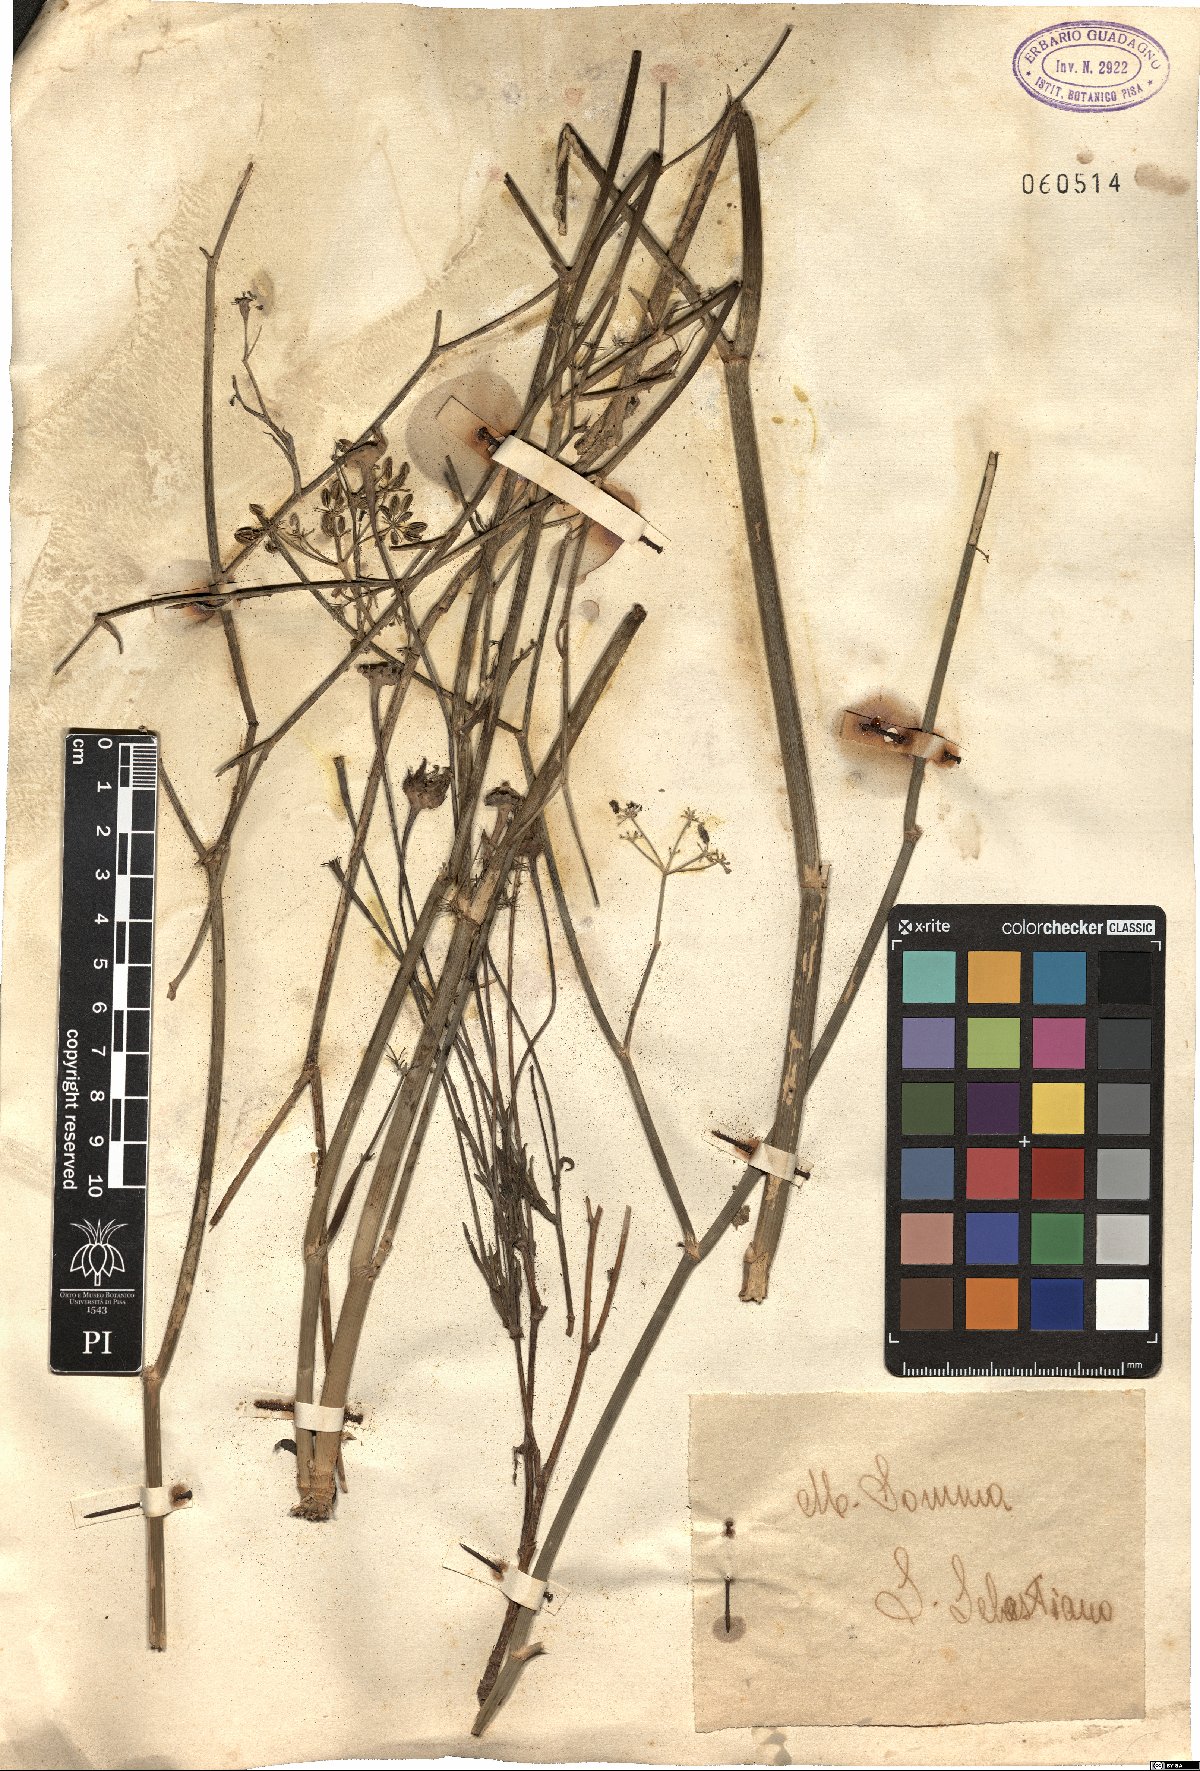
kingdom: Plantae
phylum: Tracheophyta
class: Magnoliopsida
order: Apiales
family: Apiaceae
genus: Foeniculum
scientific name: Foeniculum
